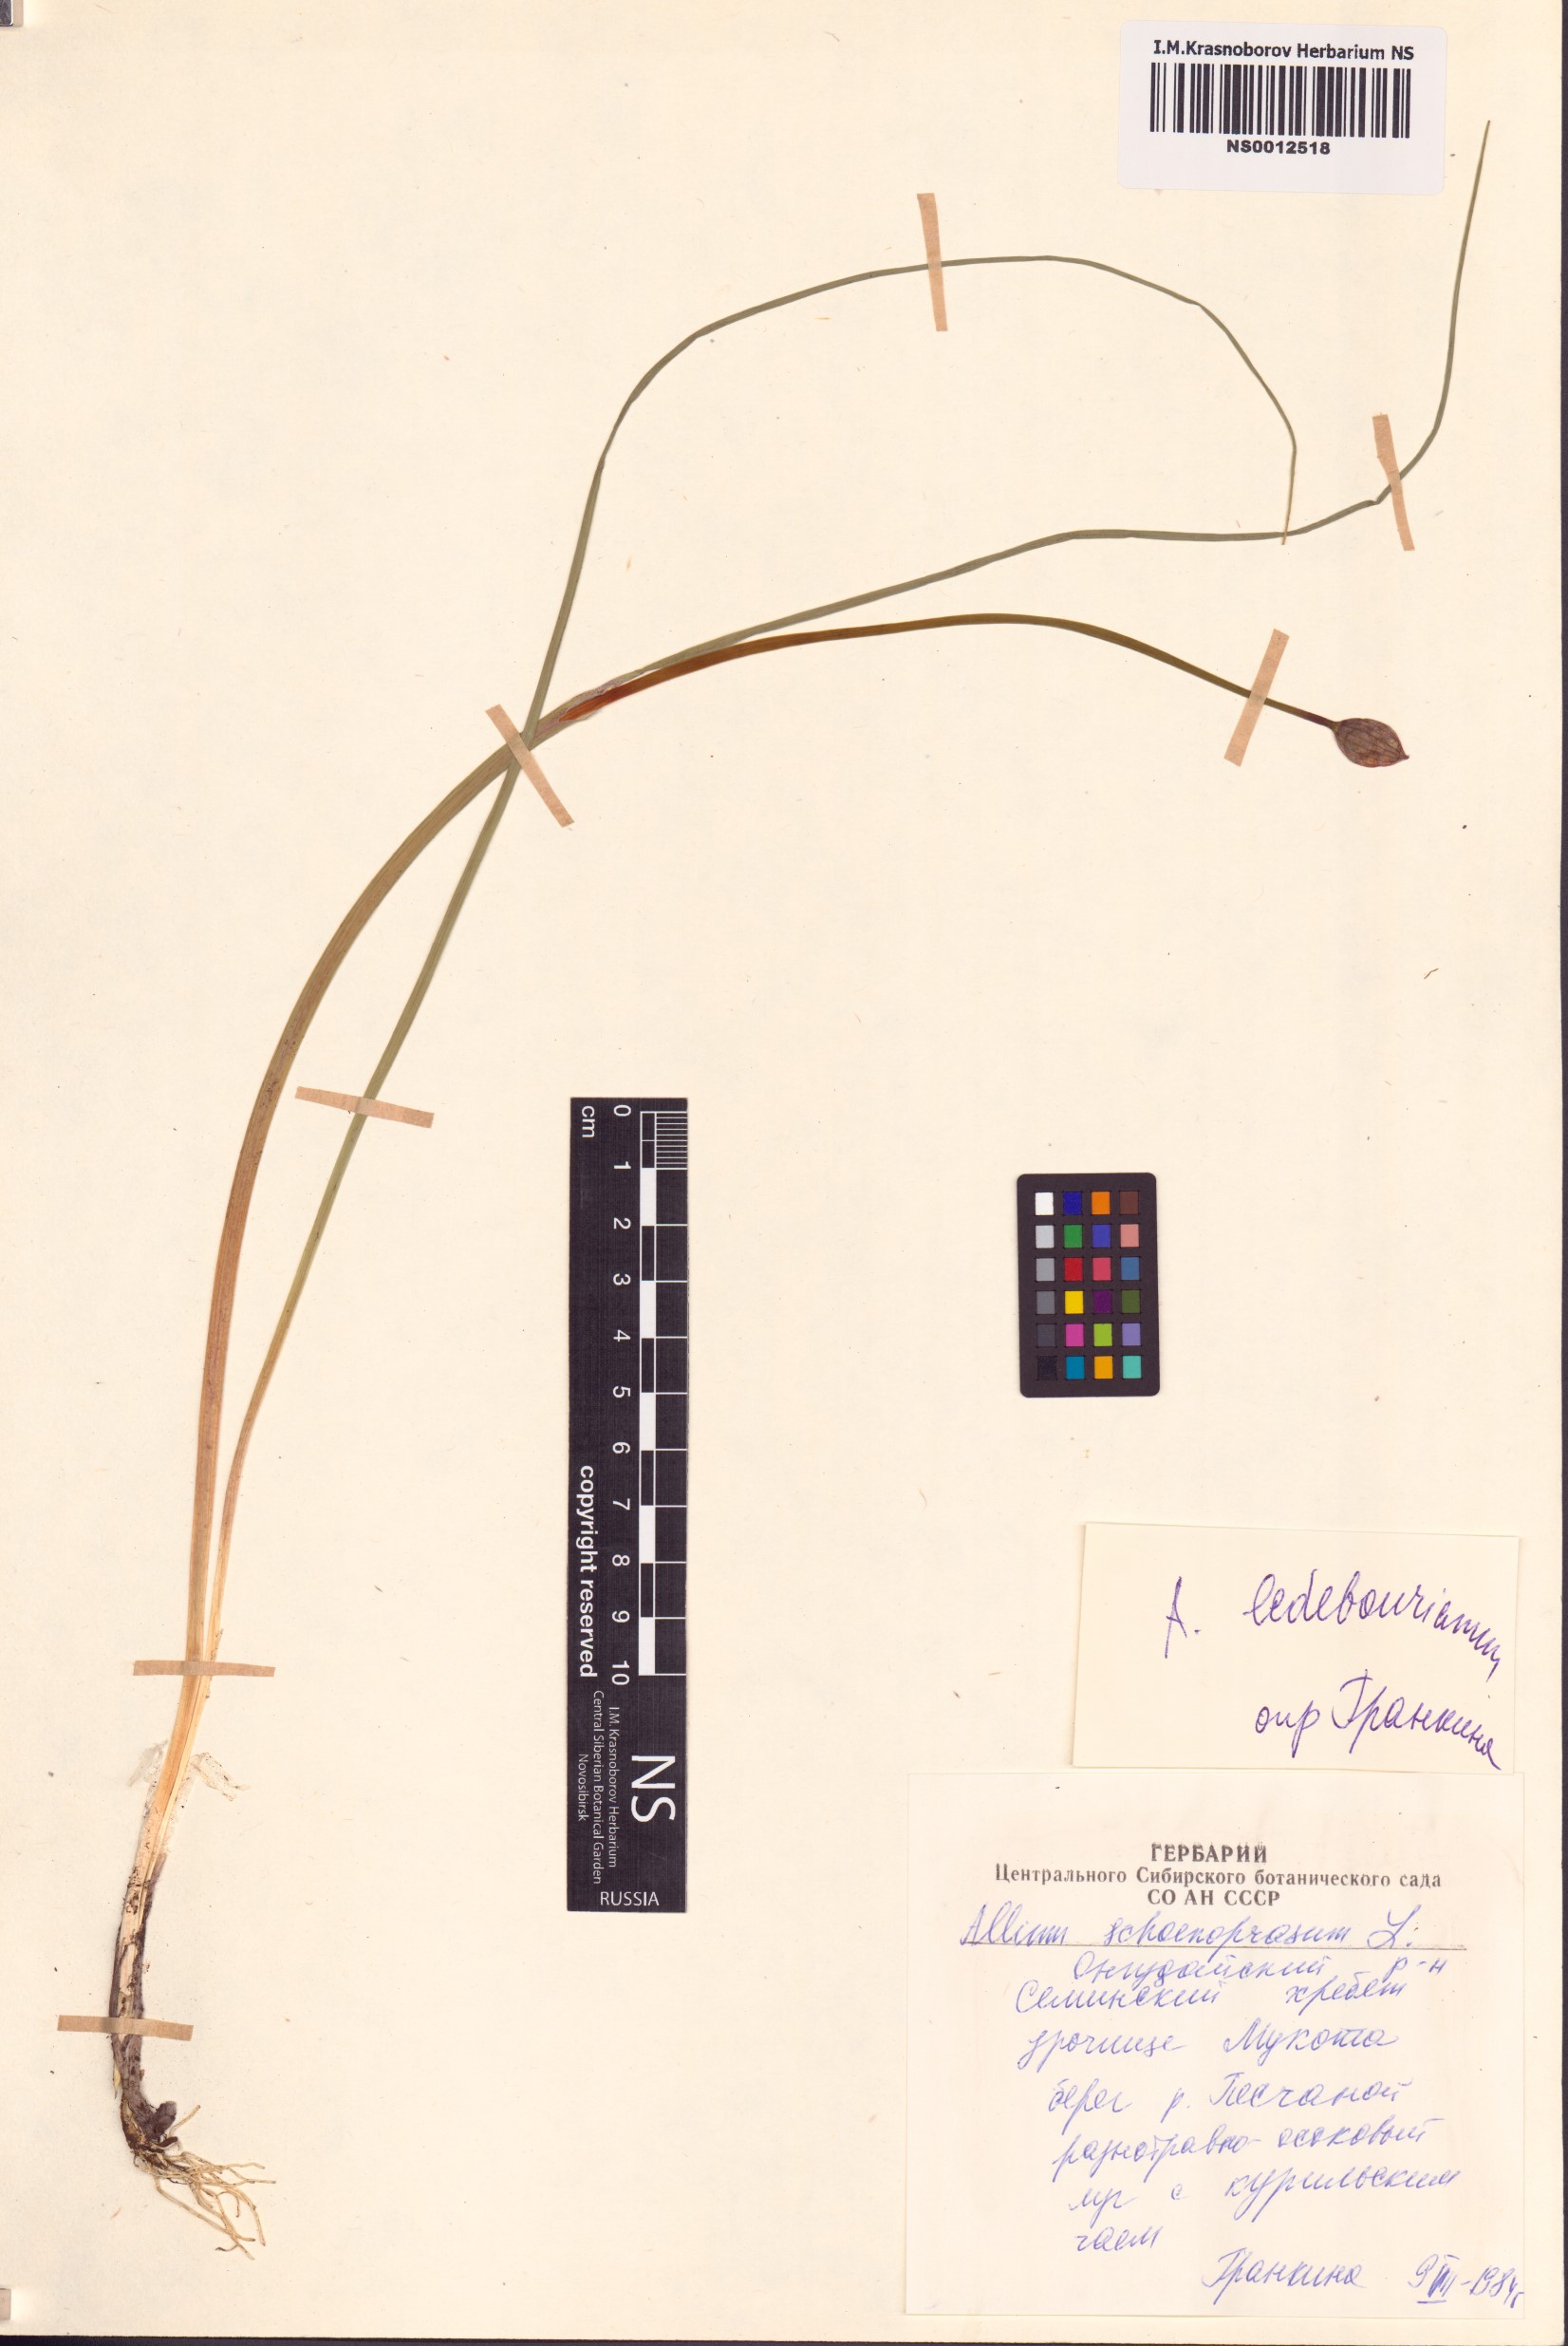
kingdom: Plantae
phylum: Tracheophyta
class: Liliopsida
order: Asparagales
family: Amaryllidaceae
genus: Allium
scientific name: Allium ledebourianum
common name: Ledebour chive
